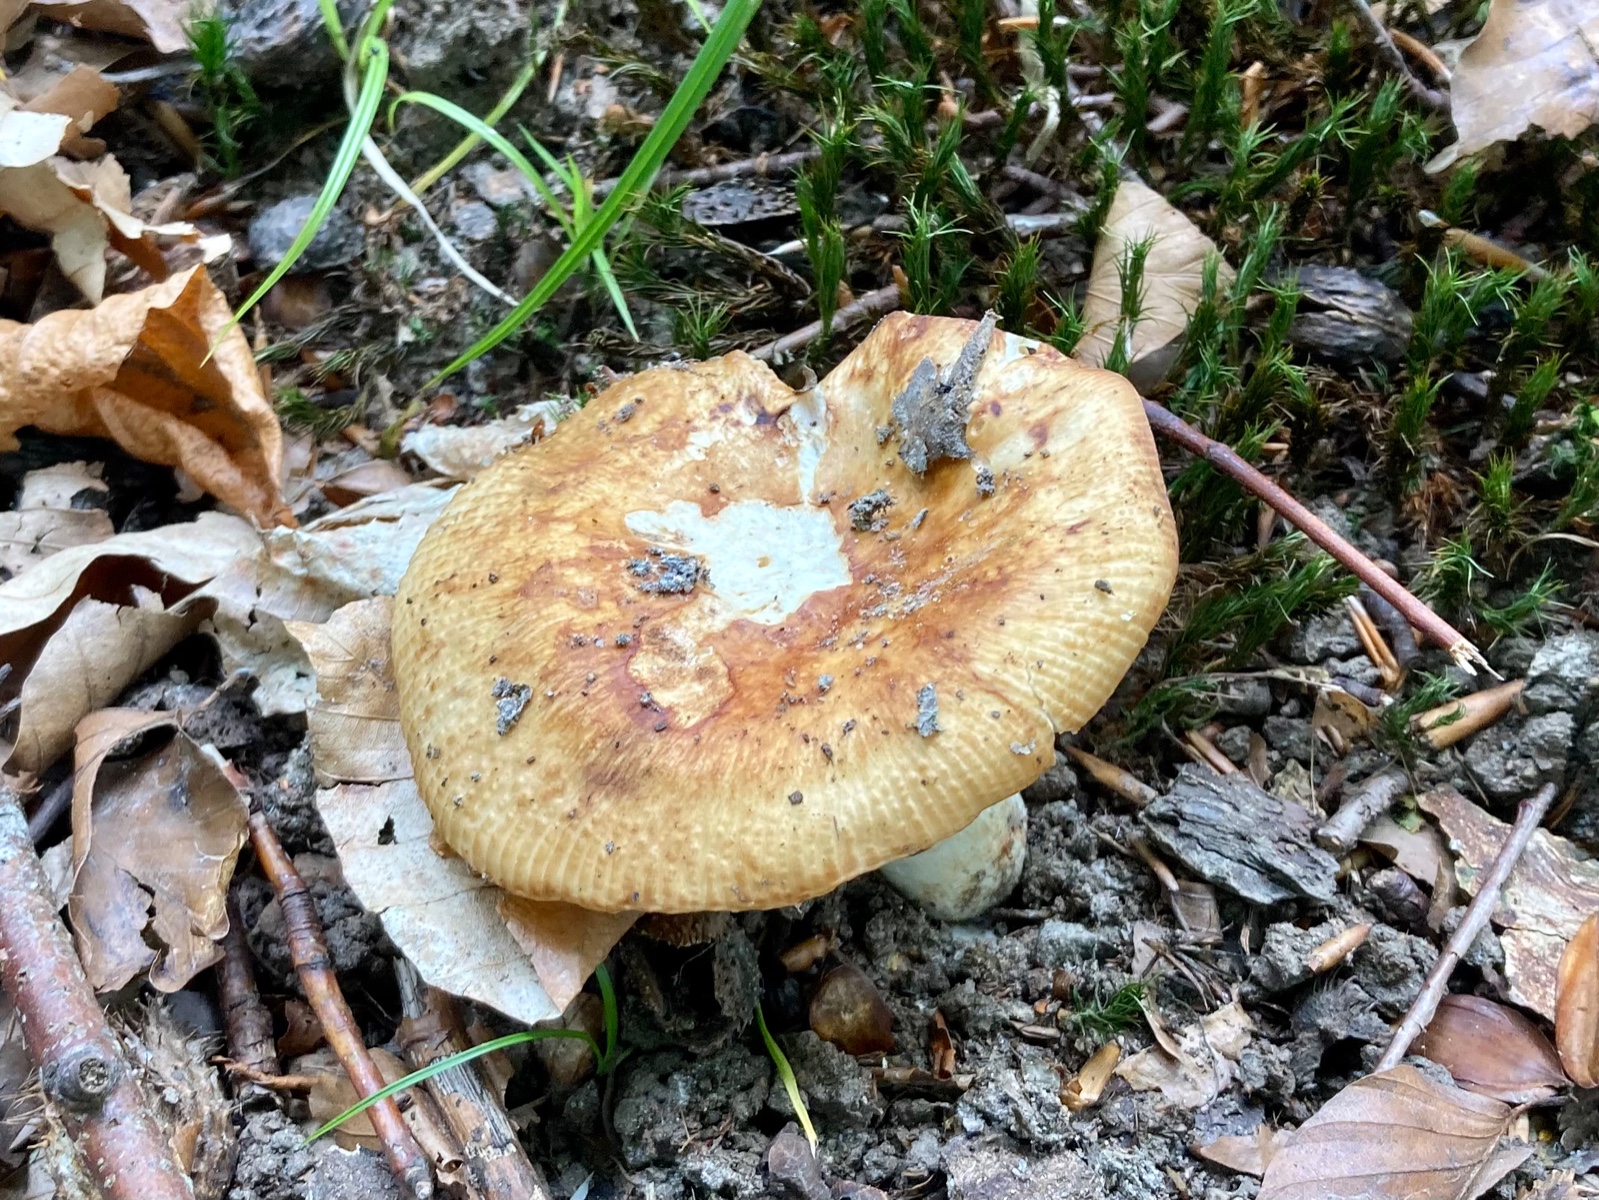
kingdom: Fungi
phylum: Basidiomycota
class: Agaricomycetes
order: Russulales
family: Russulaceae
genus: Russula
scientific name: Russula grata
